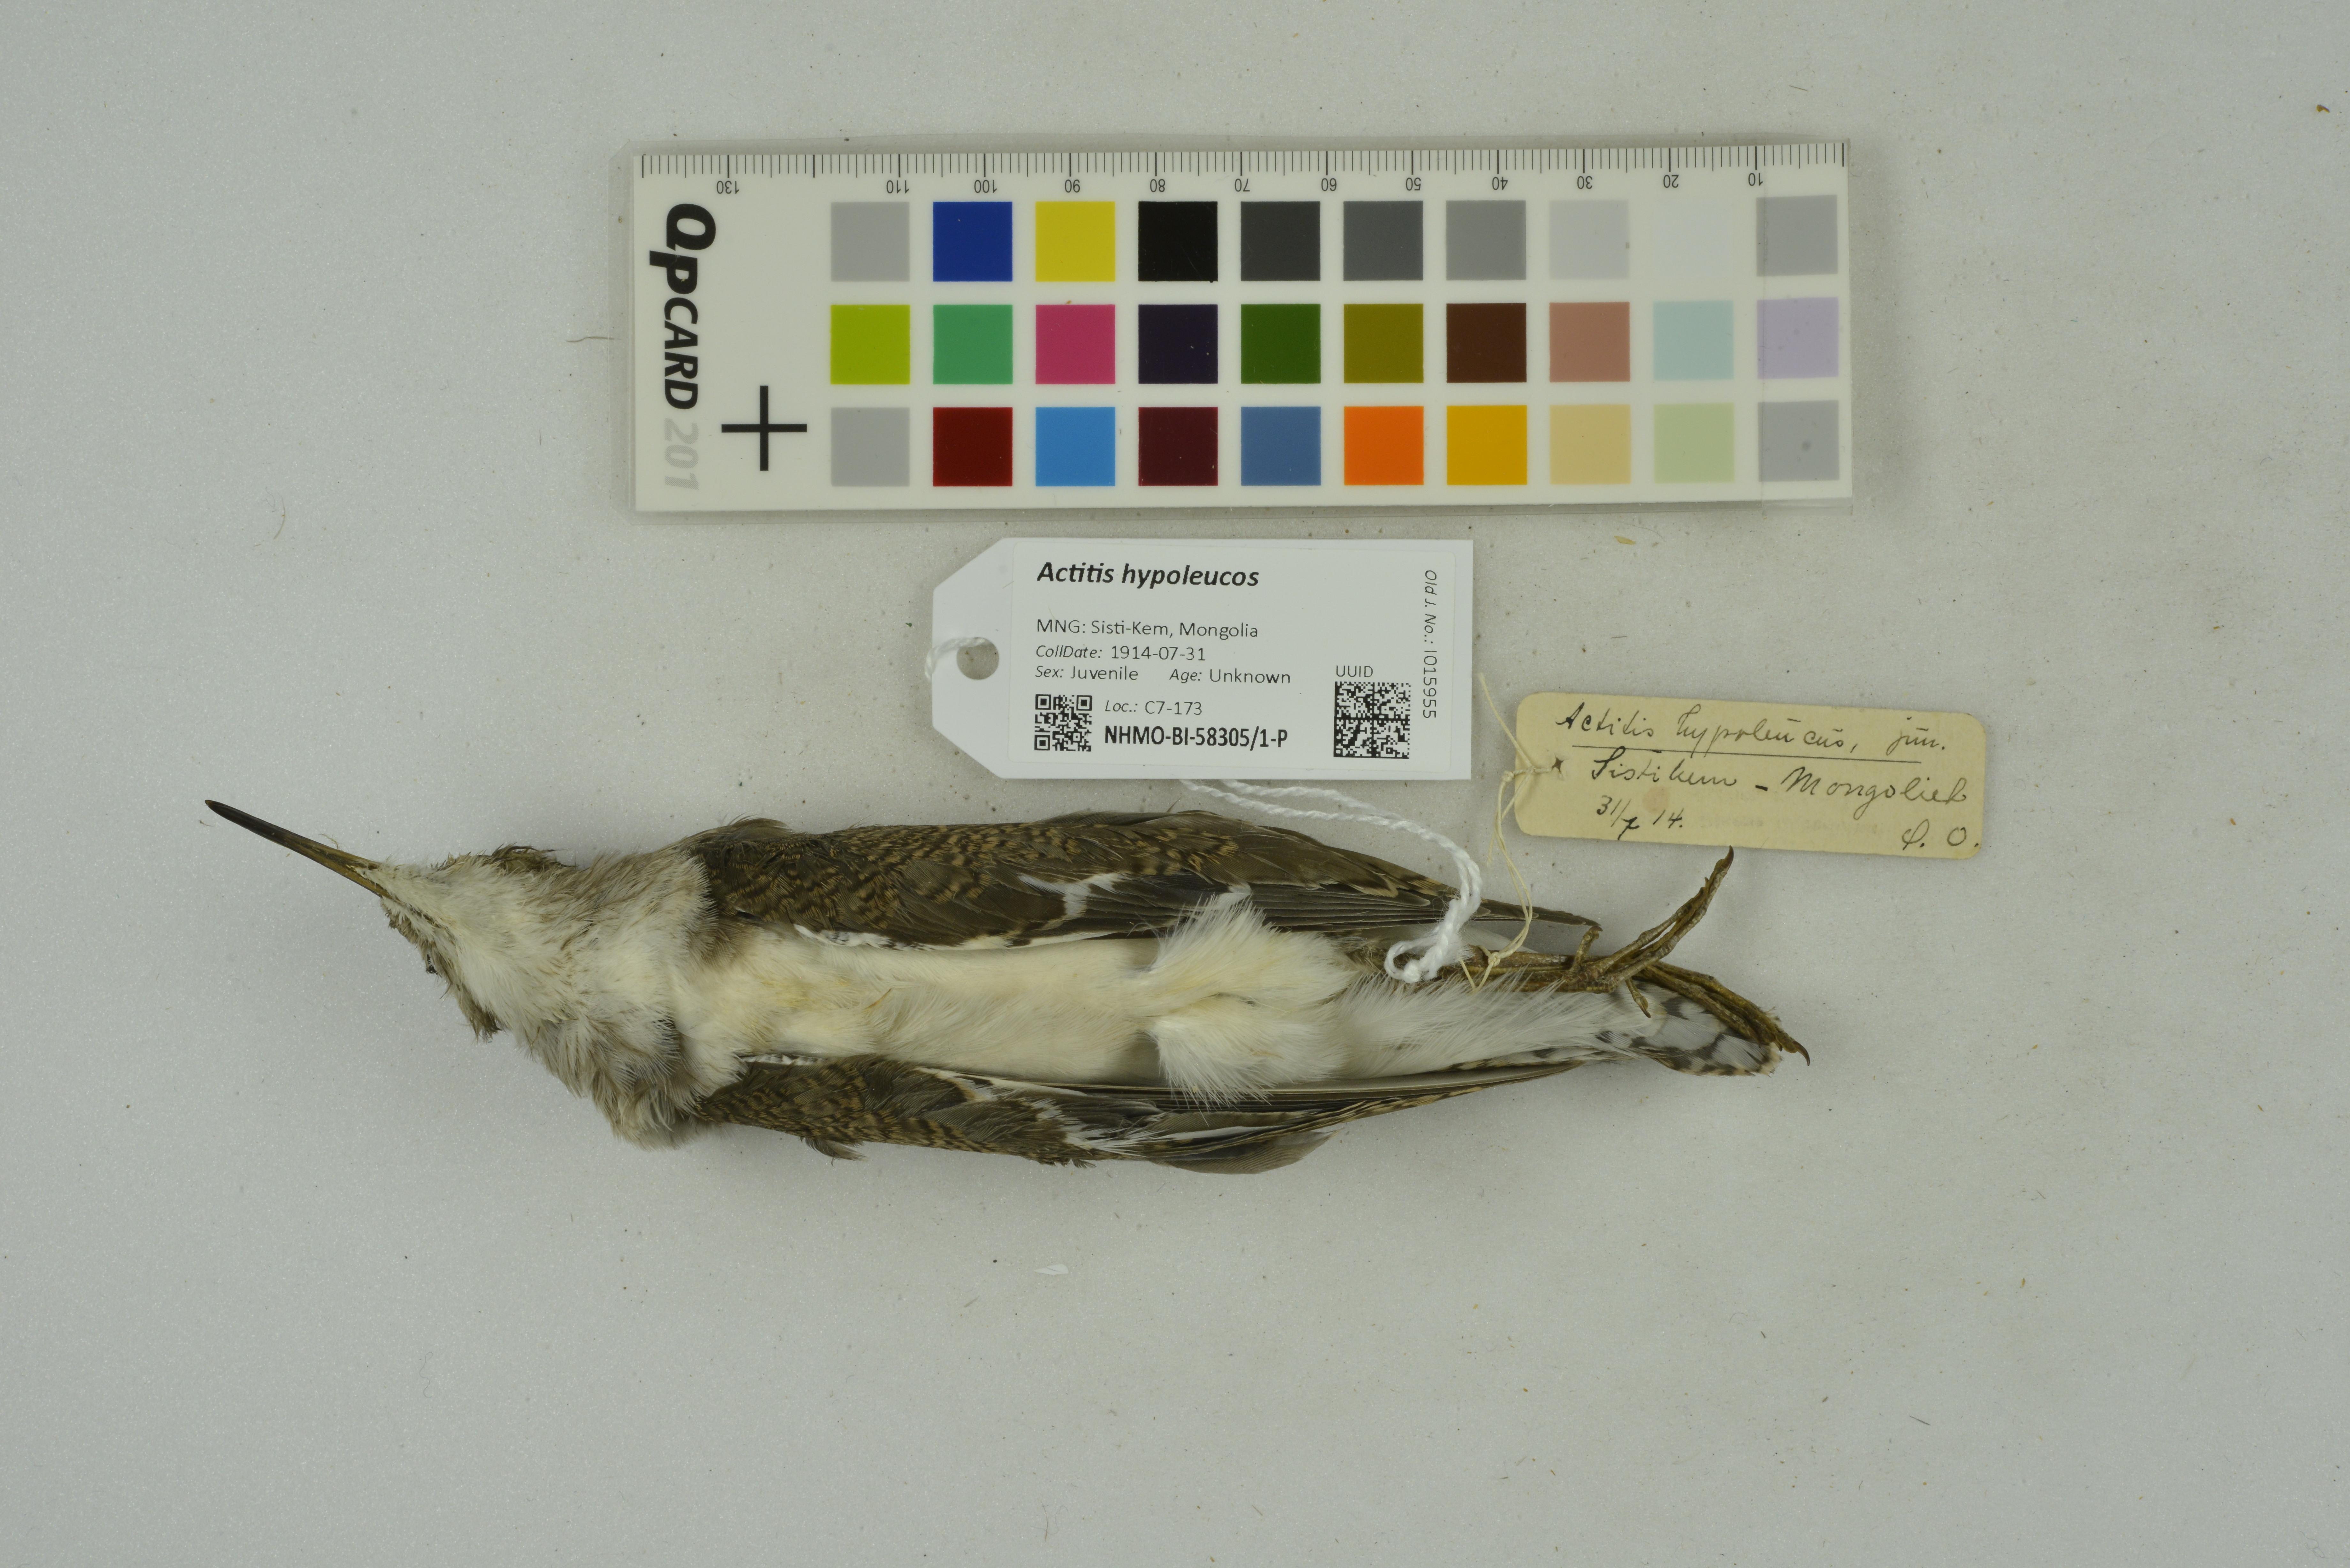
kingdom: Animalia
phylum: Chordata
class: Aves
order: Charadriiformes
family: Scolopacidae
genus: Actitis
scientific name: Actitis hypoleucos
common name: Common sandpiper
